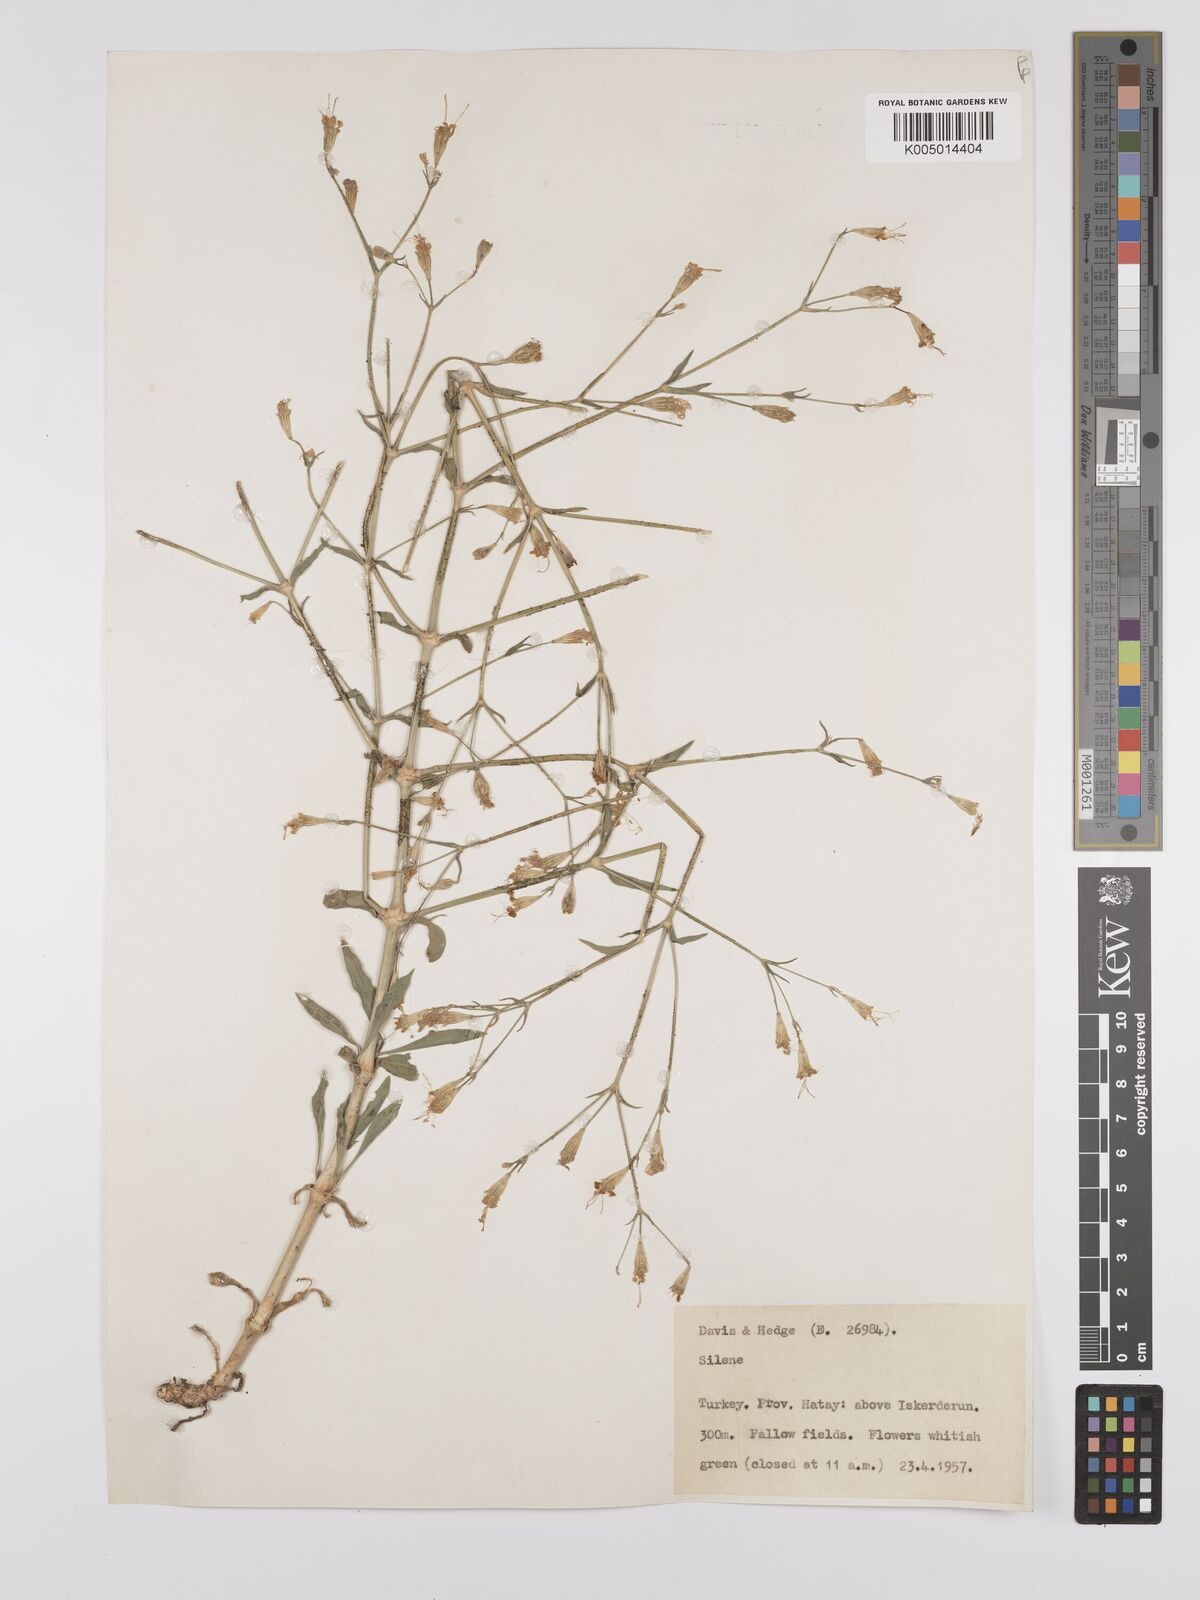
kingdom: Plantae
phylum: Tracheophyta
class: Magnoliopsida
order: Caryophyllales
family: Caryophyllaceae
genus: Silene
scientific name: Silene
